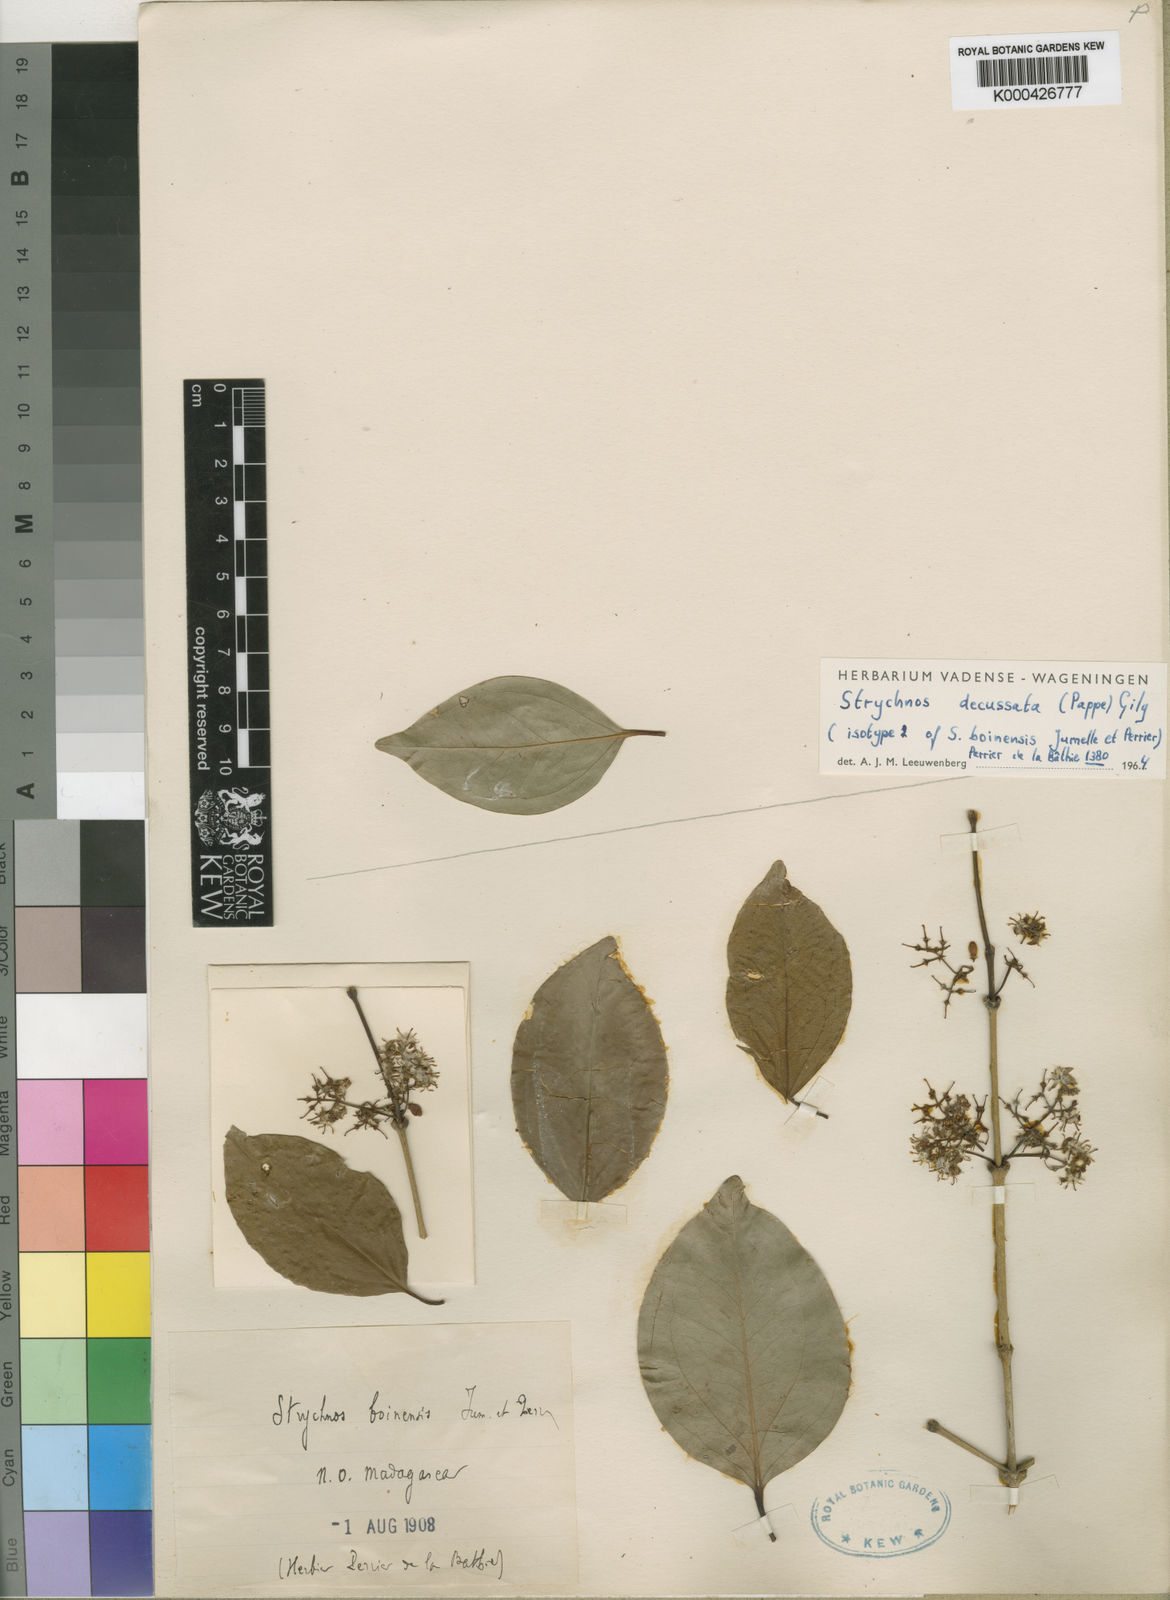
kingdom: Plantae
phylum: Tracheophyta
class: Magnoliopsida
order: Gentianales
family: Loganiaceae
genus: Strychnos
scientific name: Strychnos decussata
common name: Cape teak
